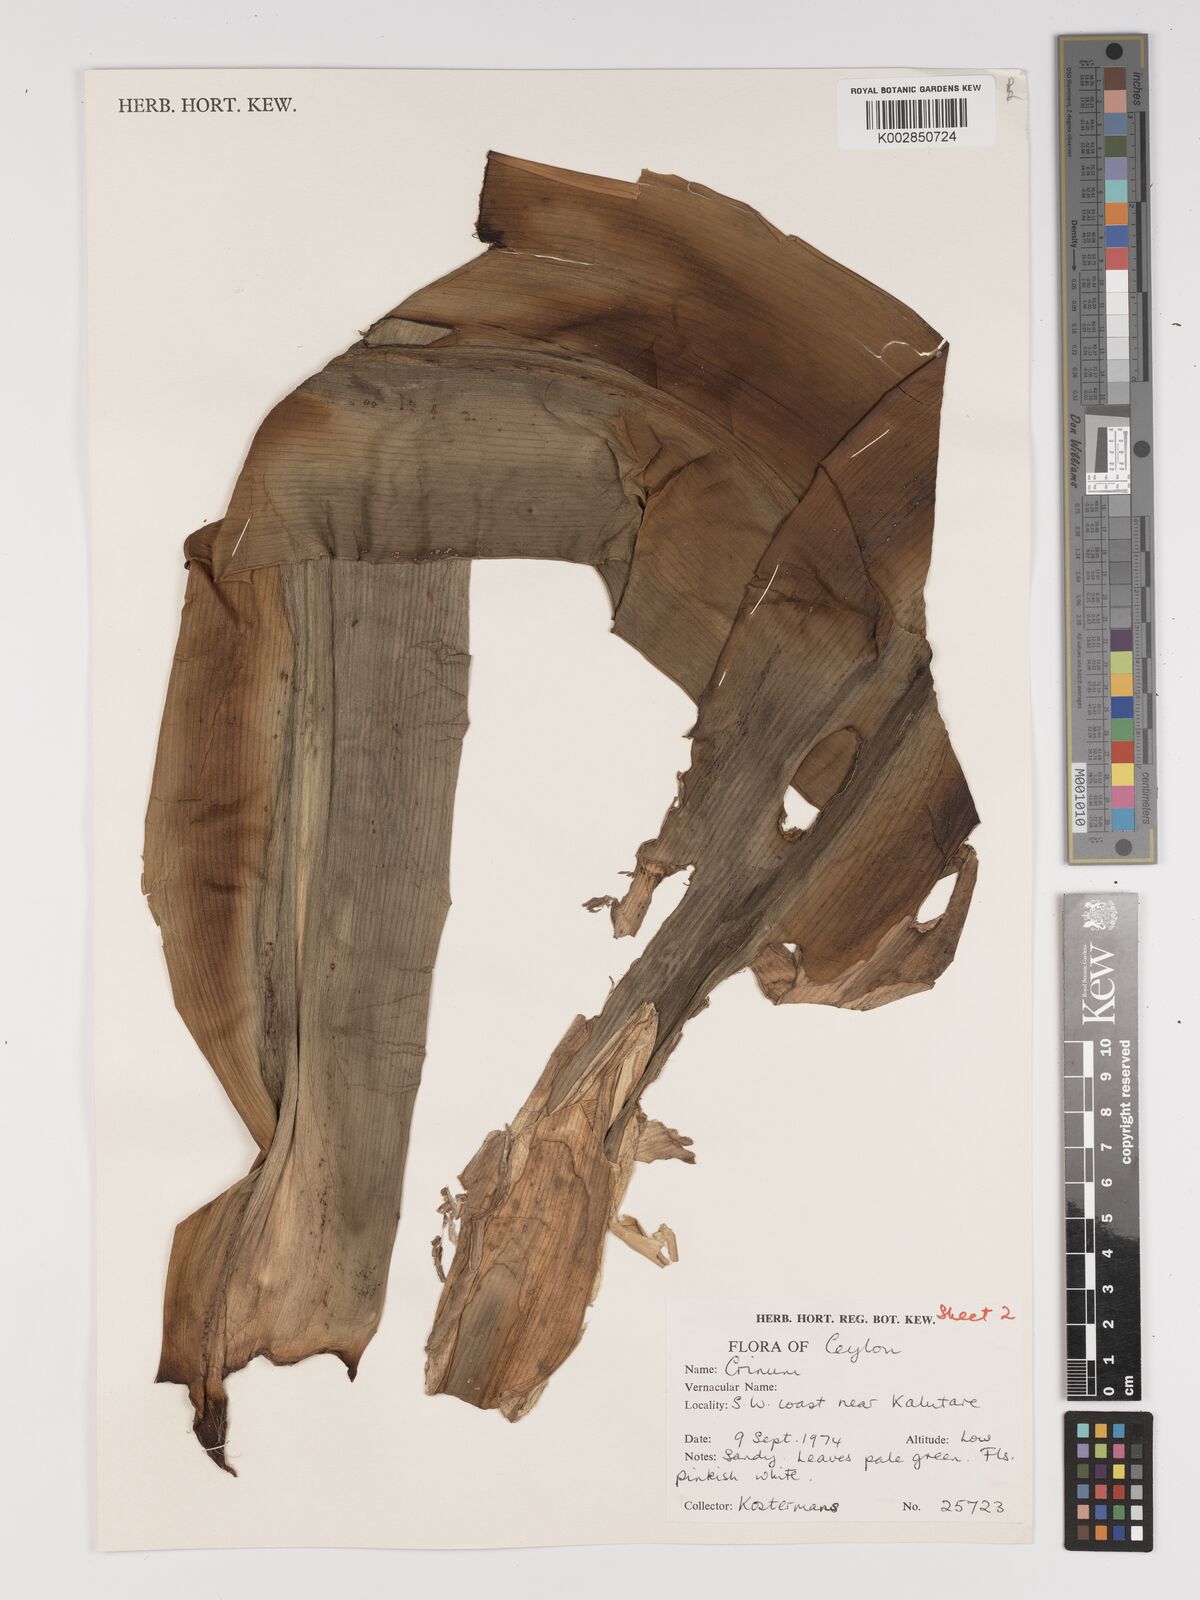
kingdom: Plantae
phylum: Tracheophyta
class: Liliopsida
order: Asparagales
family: Amaryllidaceae
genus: Crinum
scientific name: Crinum
